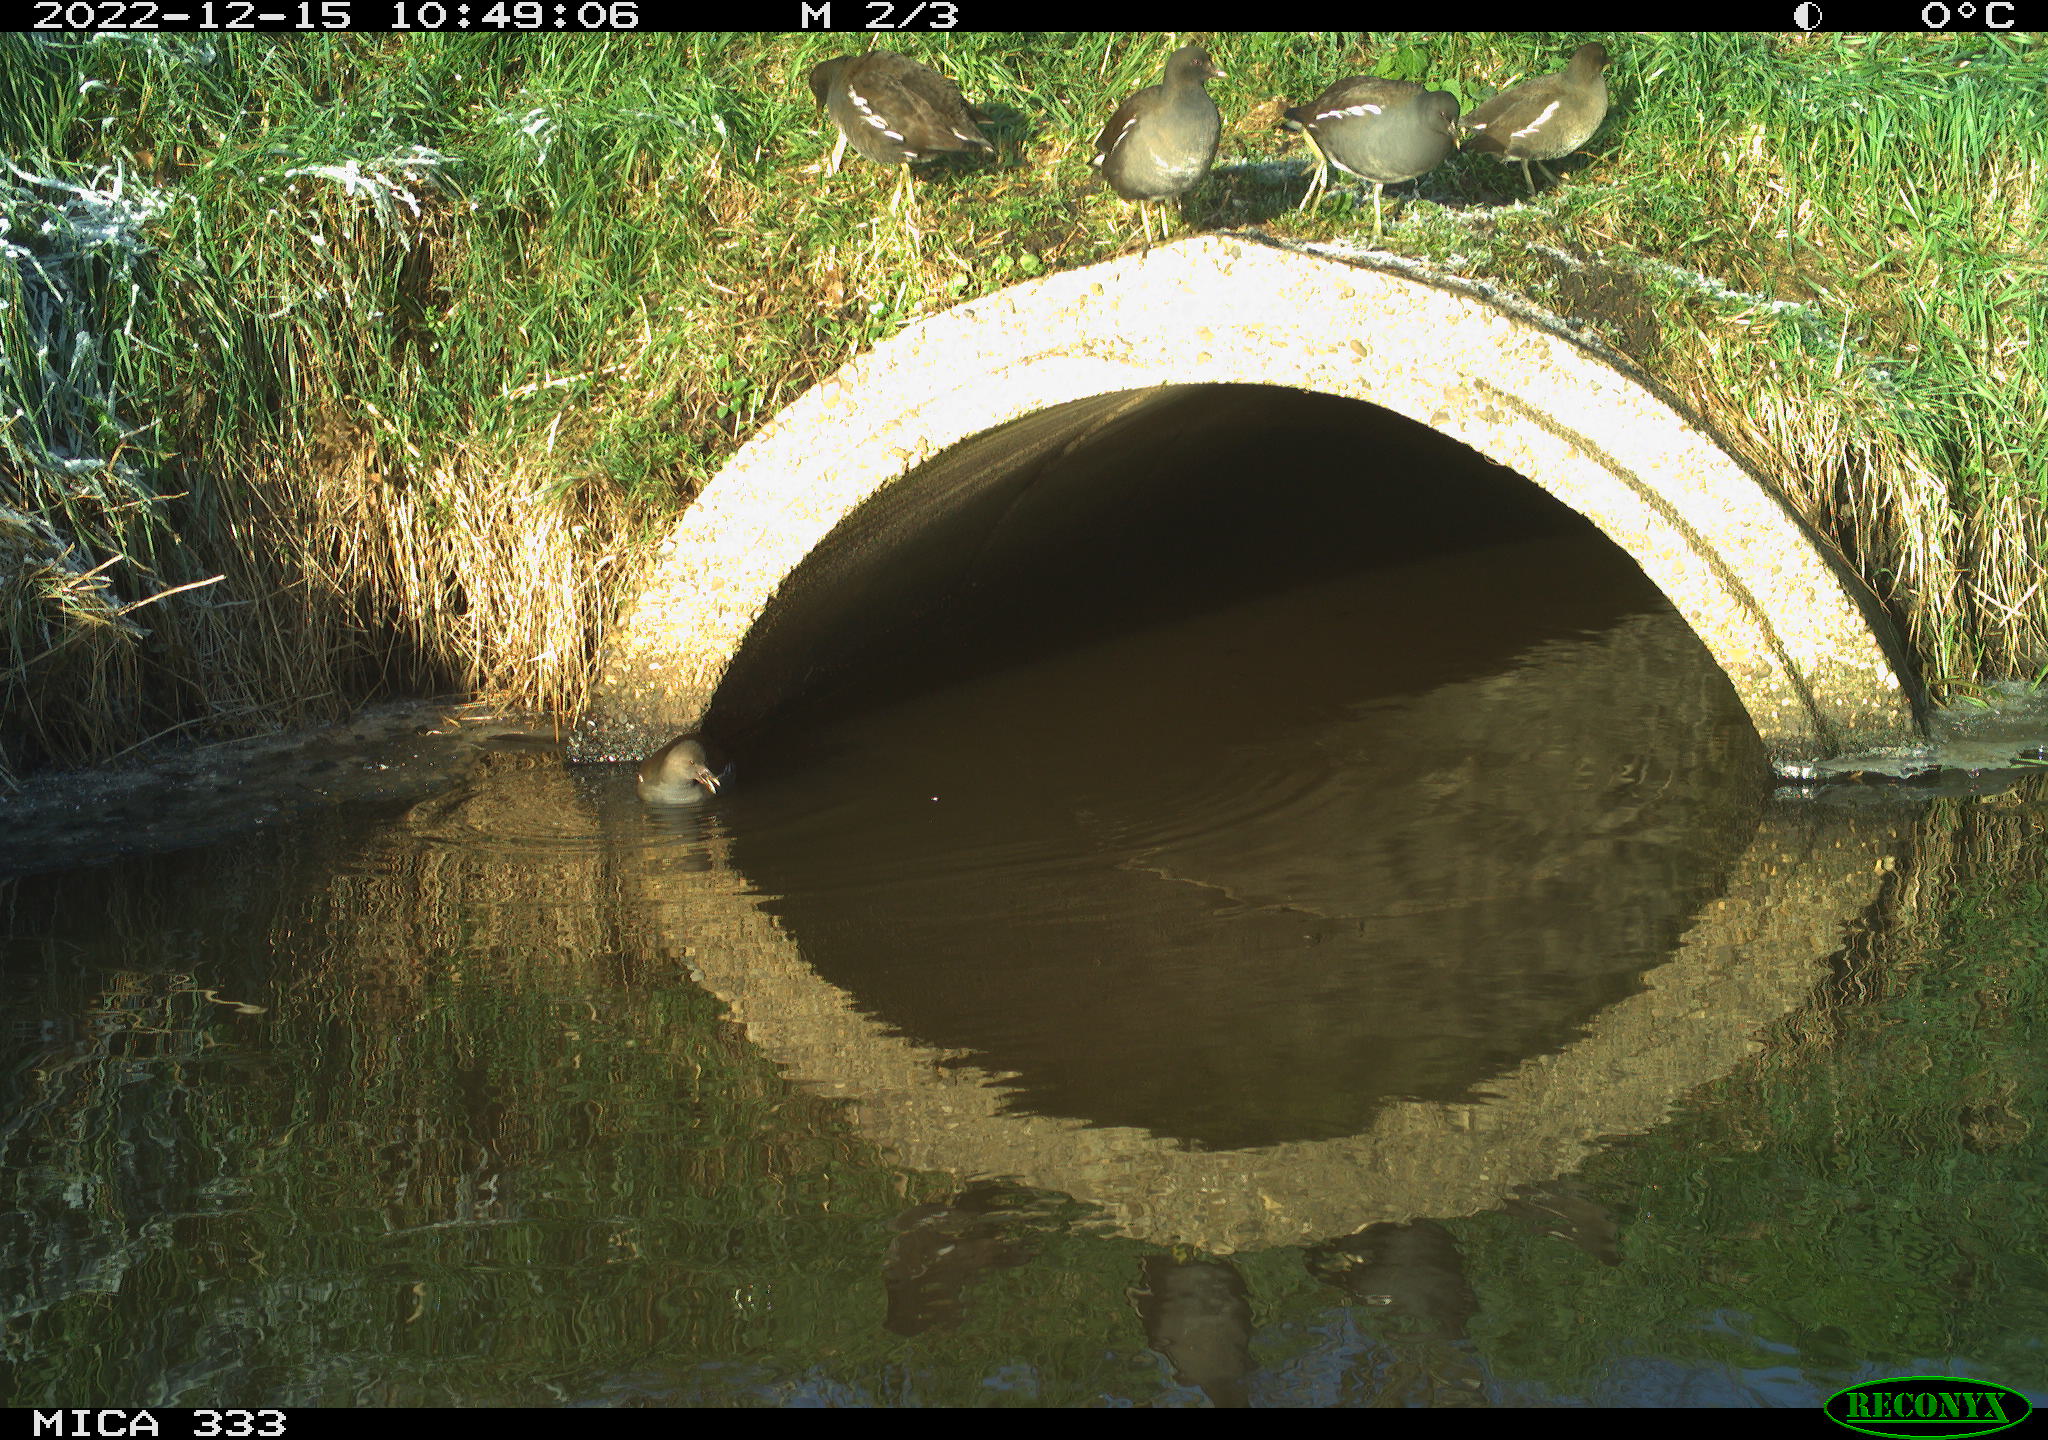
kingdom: Animalia
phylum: Chordata
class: Aves
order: Gruiformes
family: Rallidae
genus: Gallinula
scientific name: Gallinula chloropus
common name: Common moorhen
